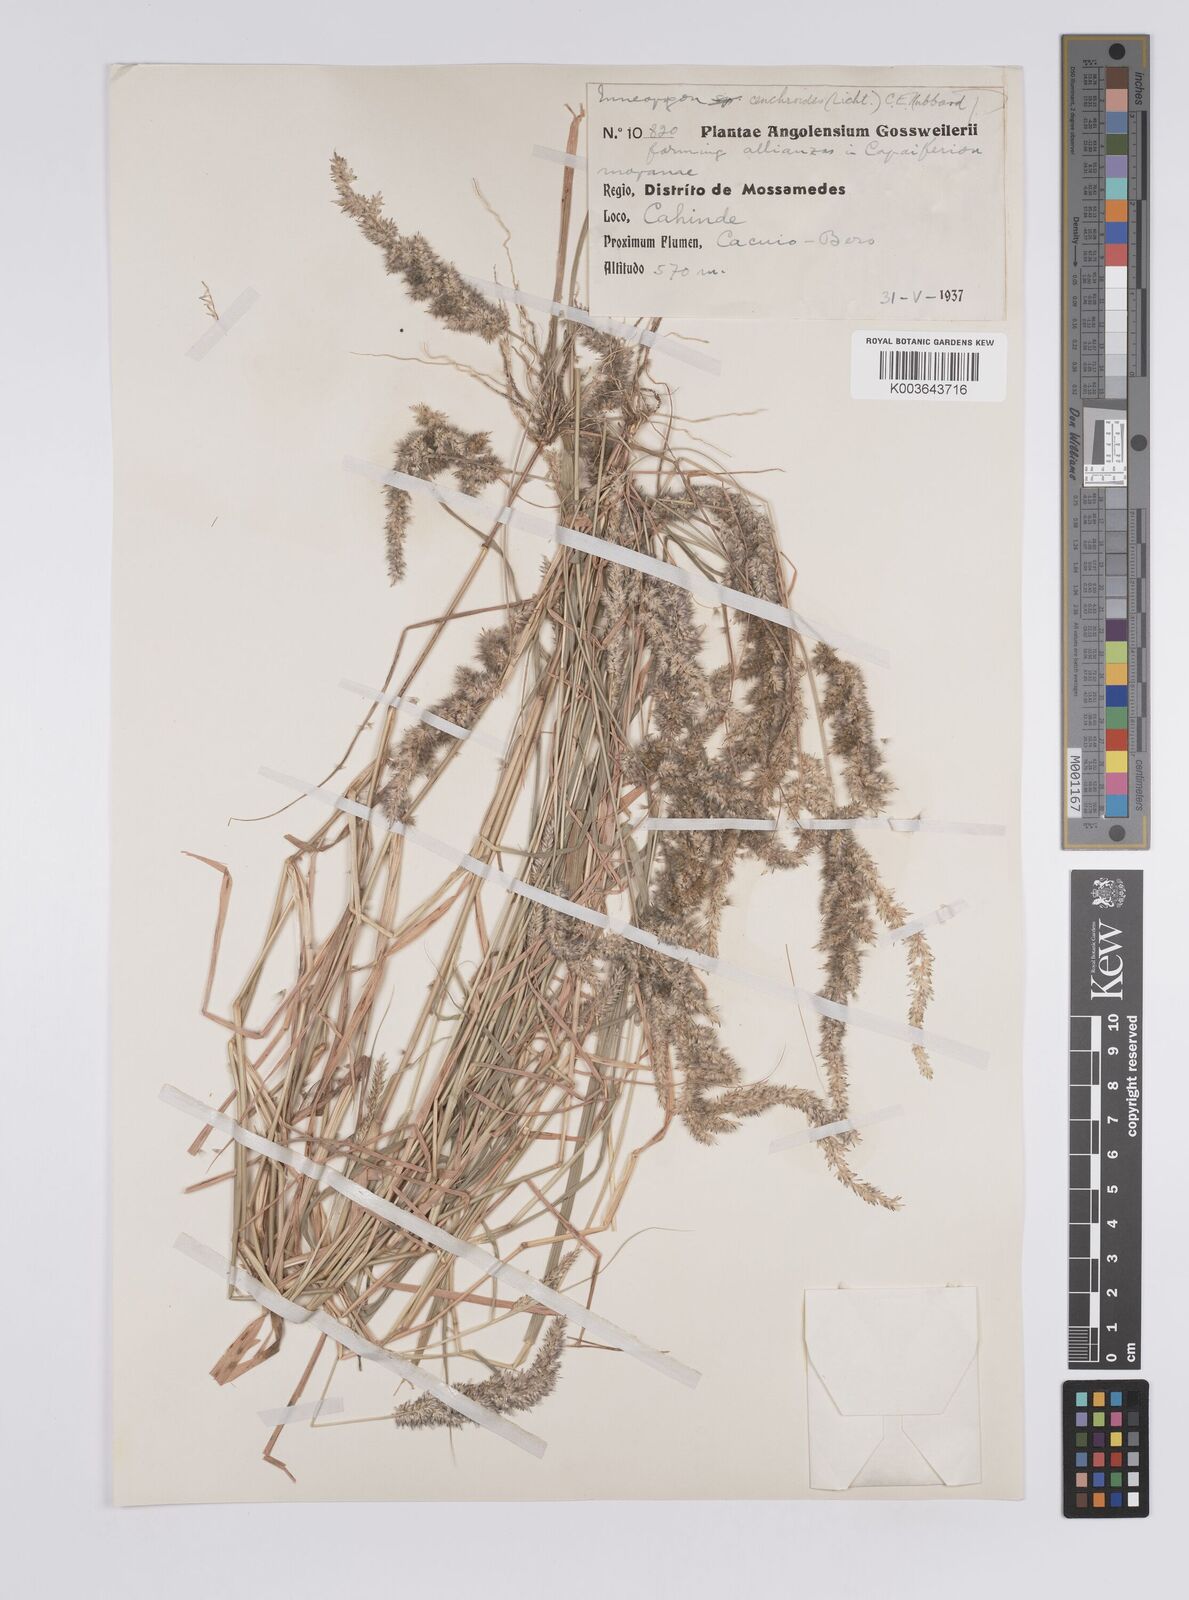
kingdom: Plantae
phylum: Tracheophyta
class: Liliopsida
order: Poales
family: Poaceae
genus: Enneapogon
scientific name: Enneapogon cenchroides
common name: Soft feather pappusgrass
